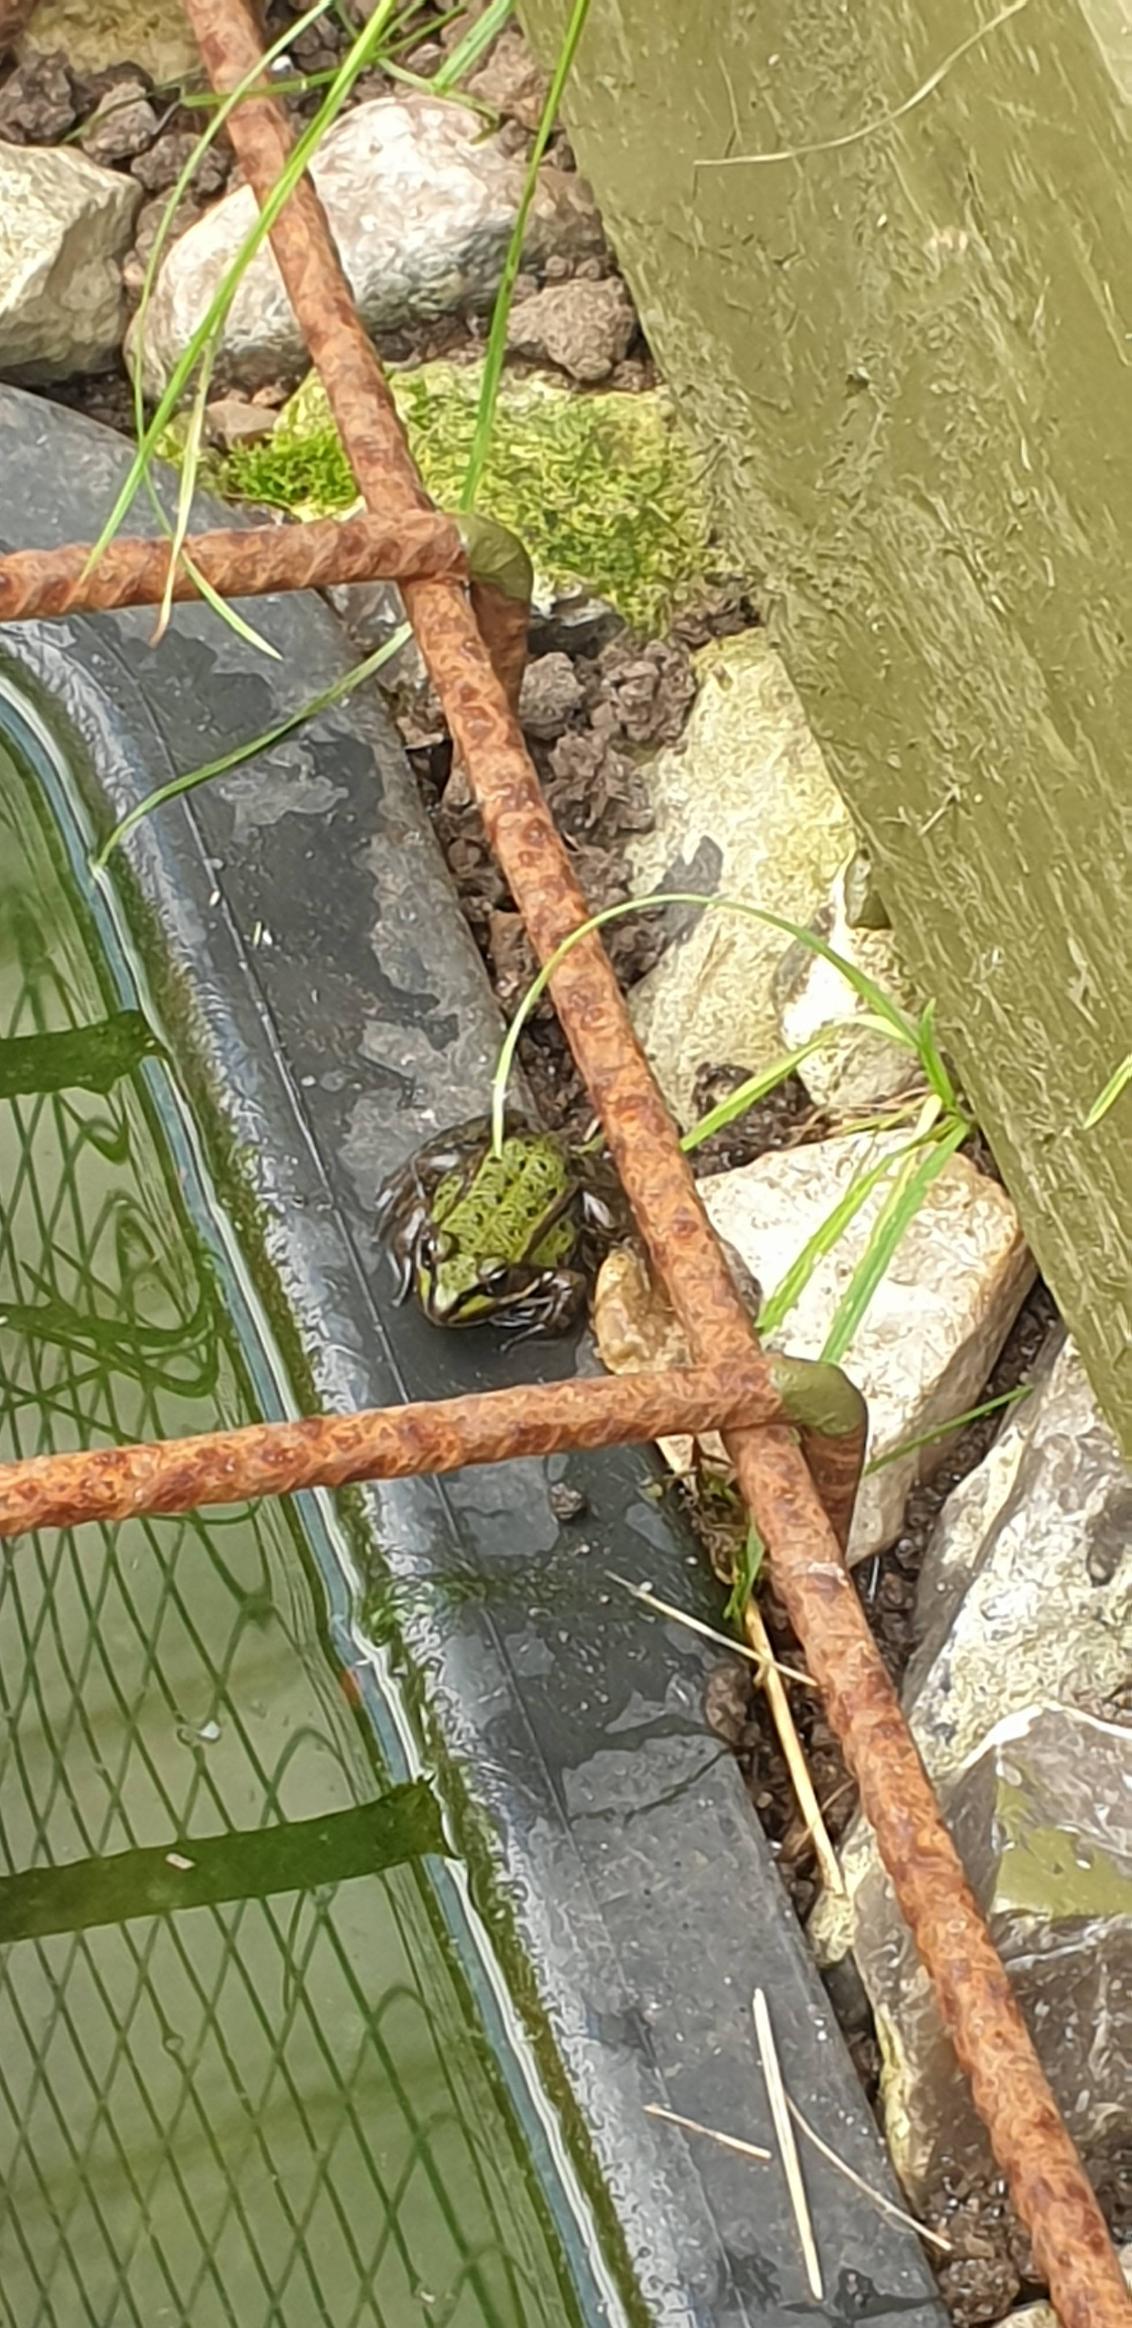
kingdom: Animalia
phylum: Chordata
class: Amphibia
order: Anura
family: Ranidae
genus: Pelophylax
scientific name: Pelophylax lessonae
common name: Grøn frø
